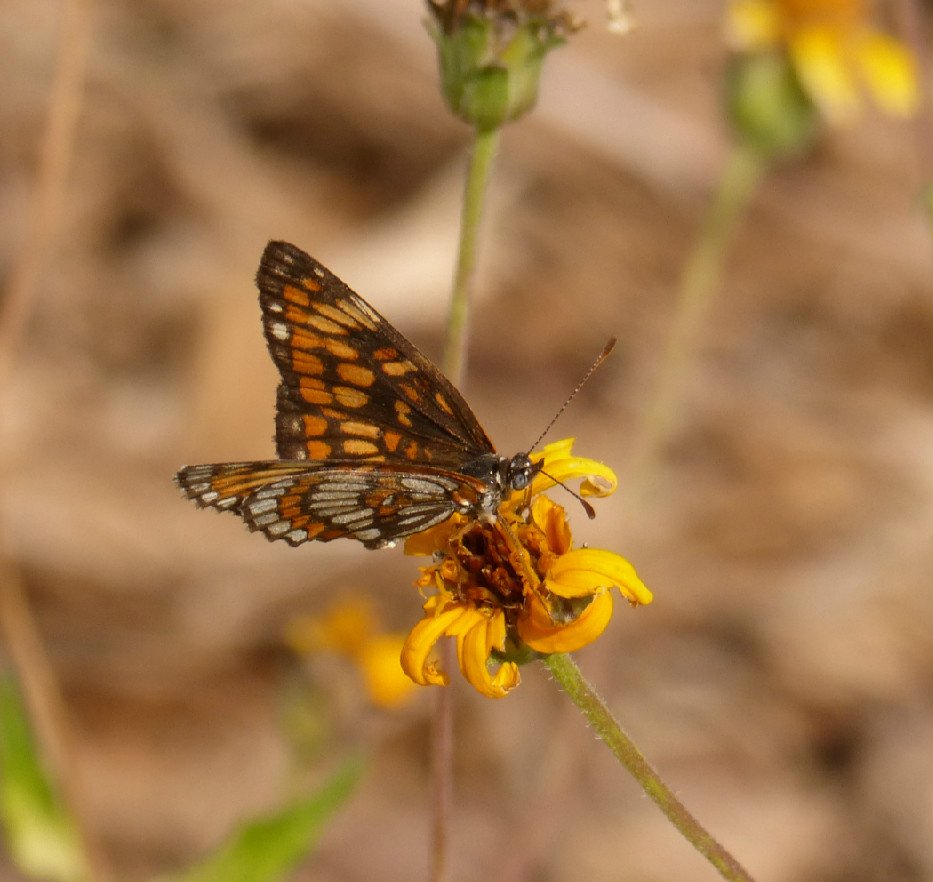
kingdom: Animalia
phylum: Arthropoda
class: Insecta
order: Lepidoptera
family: Nymphalidae
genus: Thessalia
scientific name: Thessalia theona
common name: Theona Checkerspot
